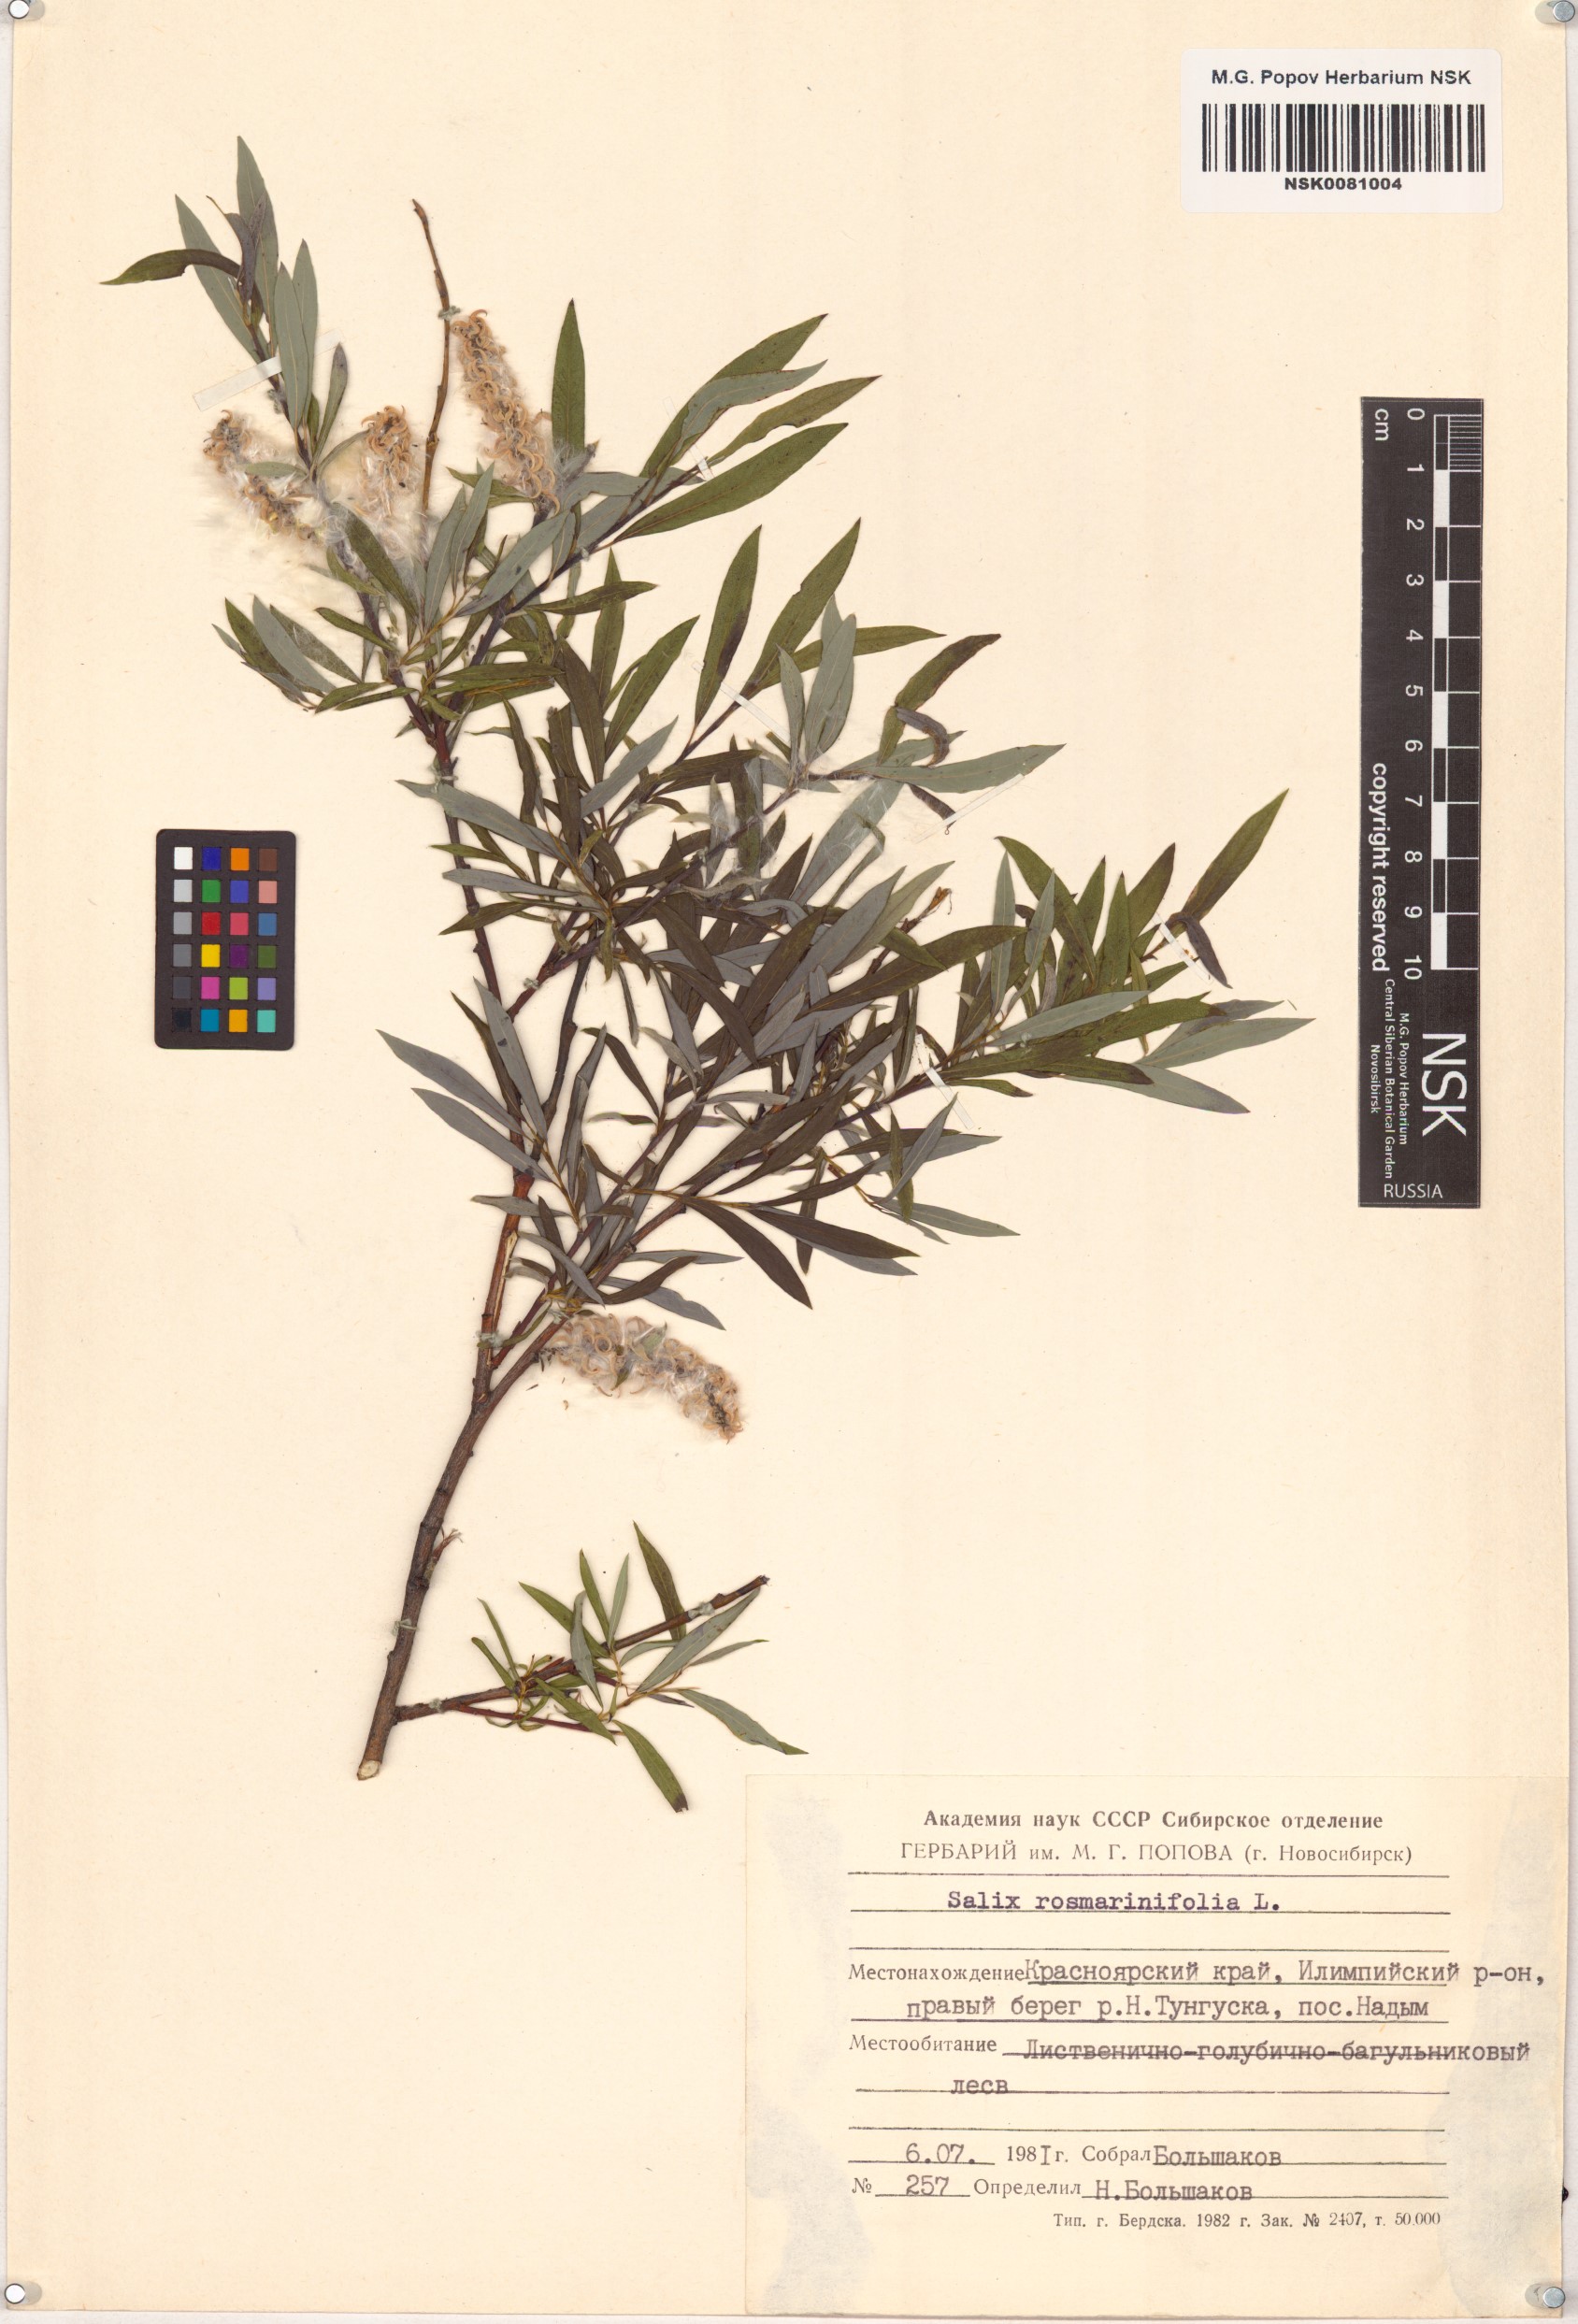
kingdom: Plantae
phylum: Tracheophyta
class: Magnoliopsida
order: Malpighiales
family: Salicaceae
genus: Salix
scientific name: Salix rosmarinifolia
